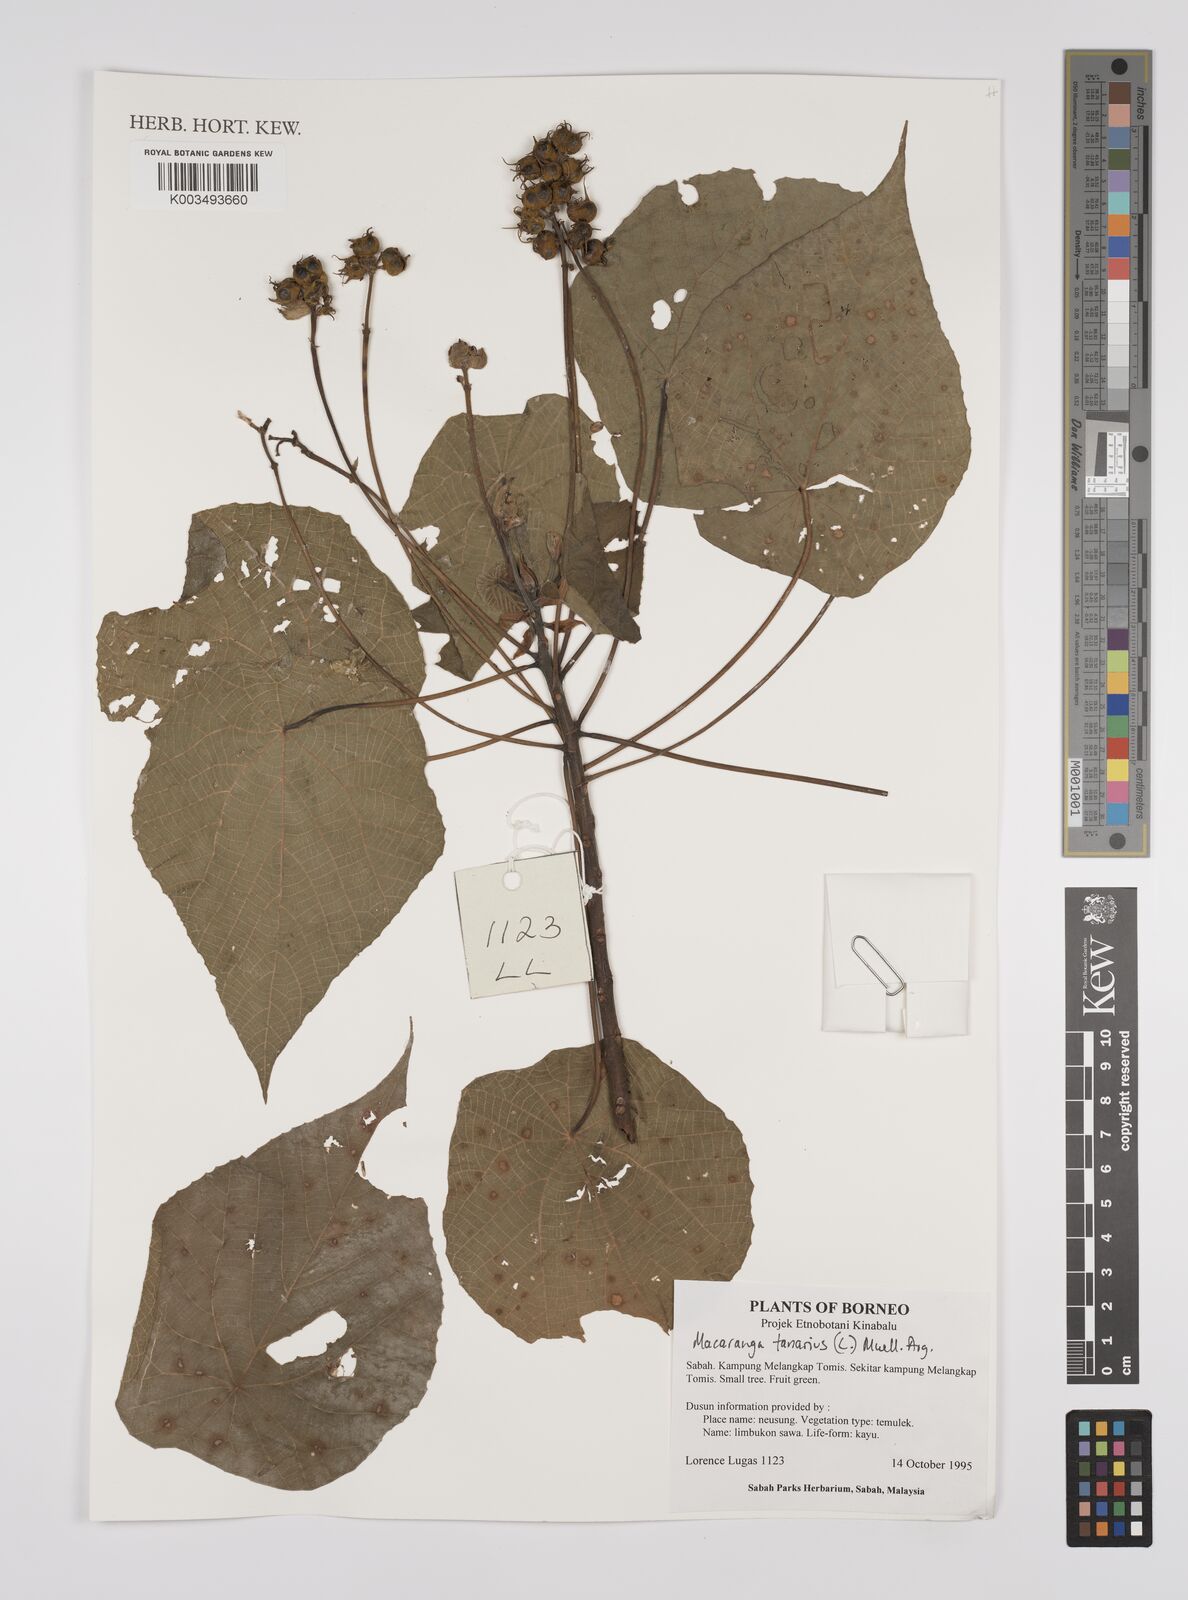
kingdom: Plantae
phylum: Tracheophyta
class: Magnoliopsida
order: Malpighiales
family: Euphorbiaceae
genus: Macaranga
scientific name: Macaranga tanarius
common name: Parasol leaf tree
